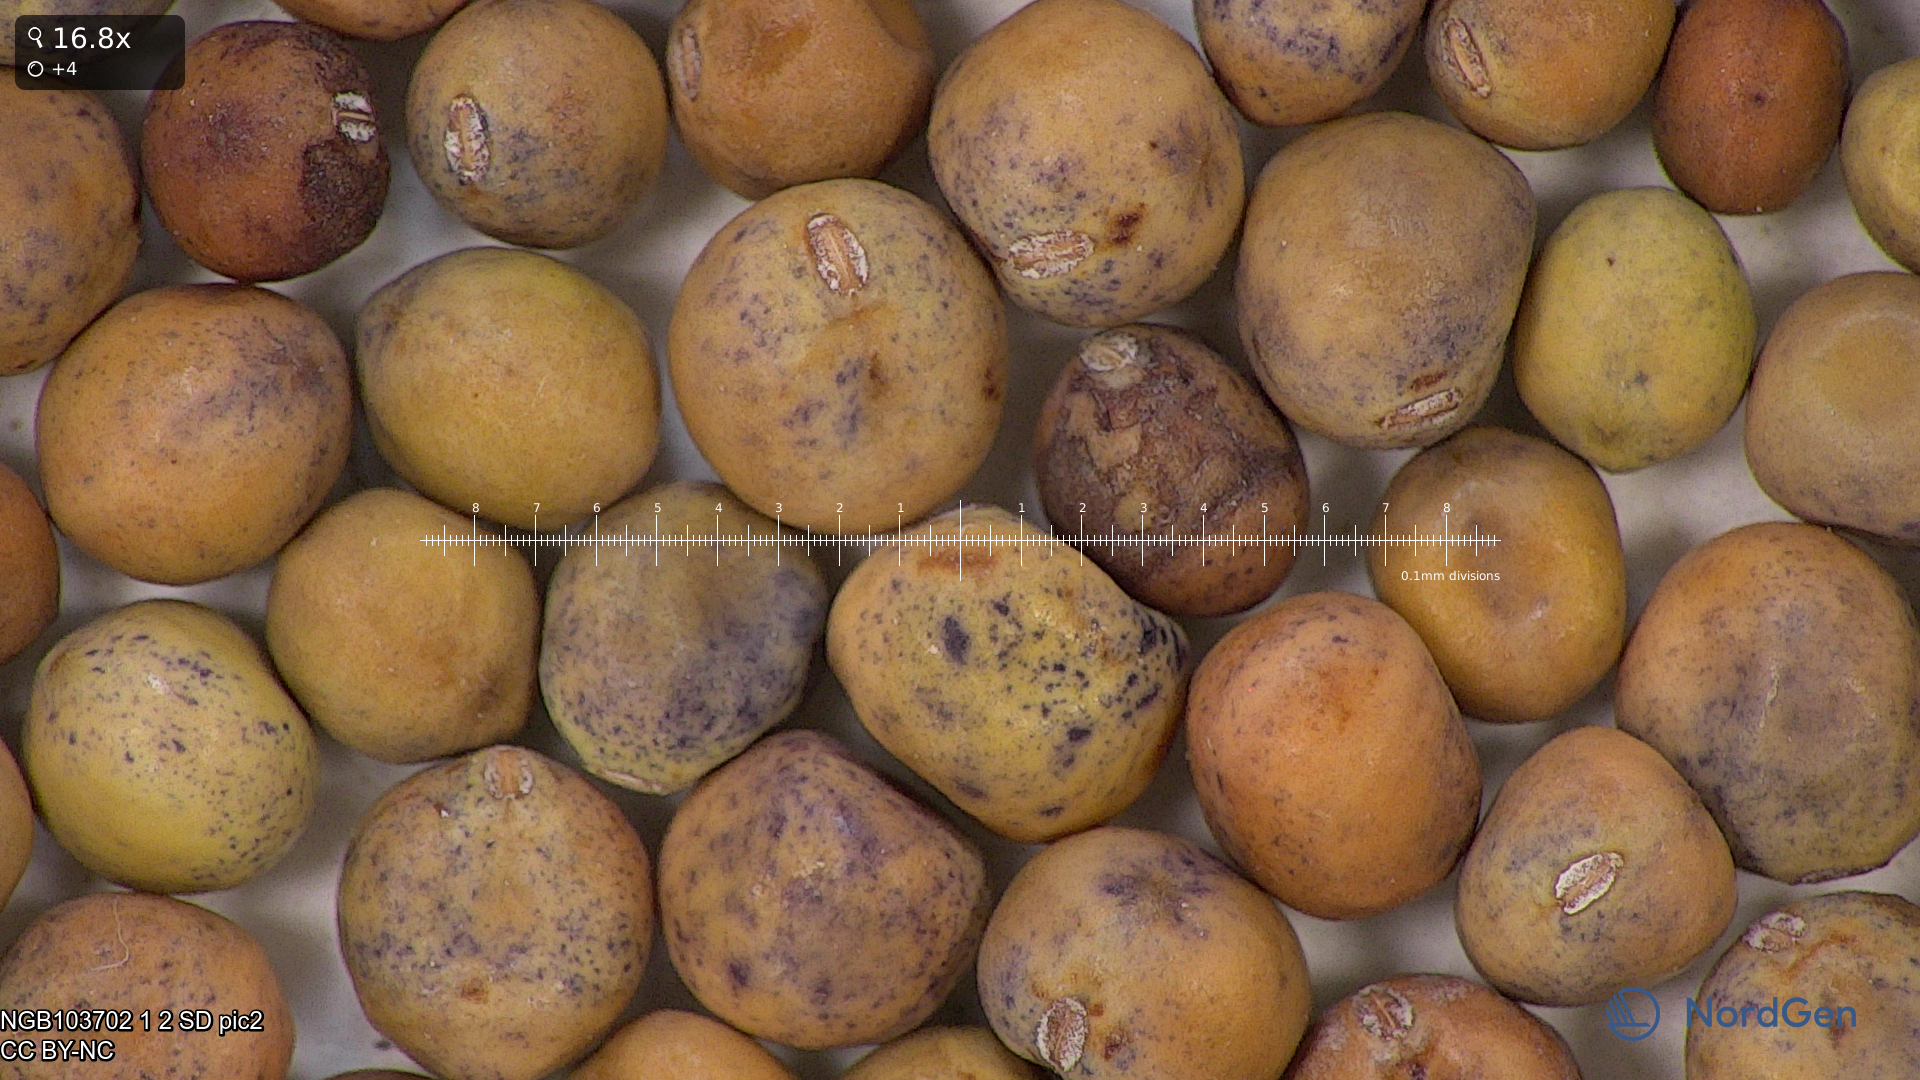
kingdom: Plantae
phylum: Tracheophyta
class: Magnoliopsida
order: Fabales
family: Fabaceae
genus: Lathyrus
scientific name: Lathyrus oleraceus
